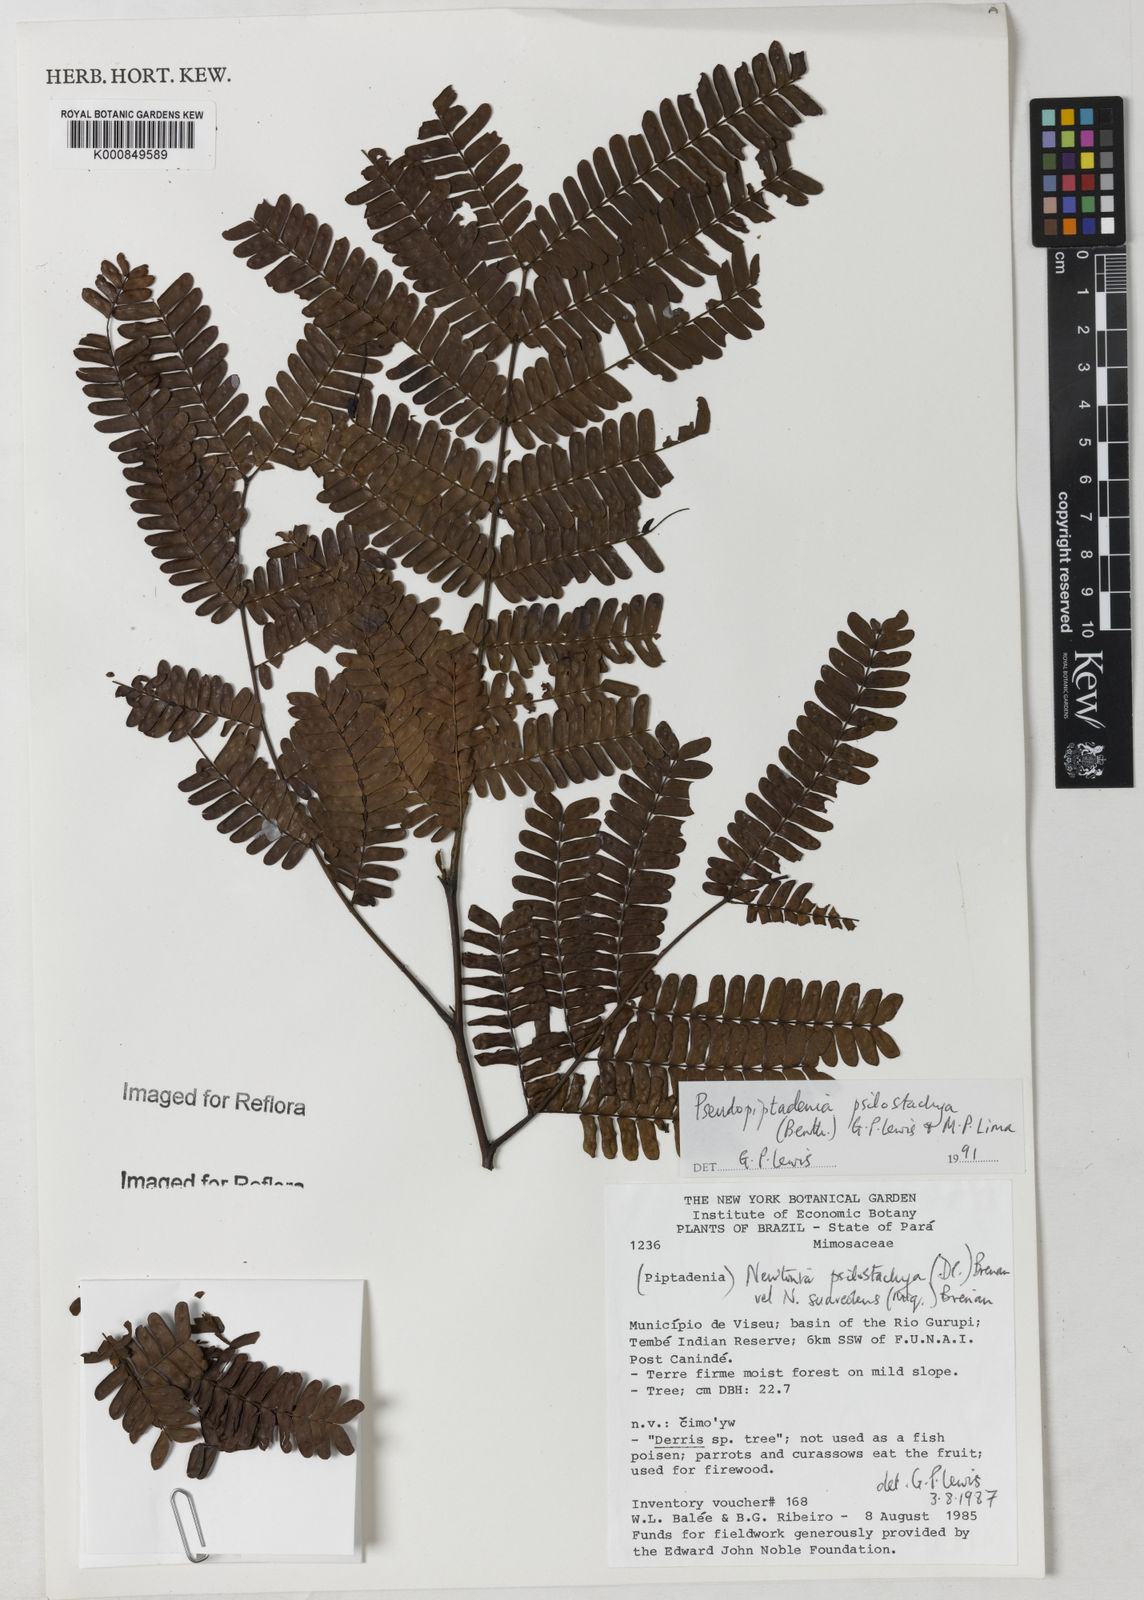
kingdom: Plantae
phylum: Tracheophyta
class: Magnoliopsida
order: Fabales
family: Fabaceae
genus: Pseudopiptadenia
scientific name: Pseudopiptadenia psilostachya
